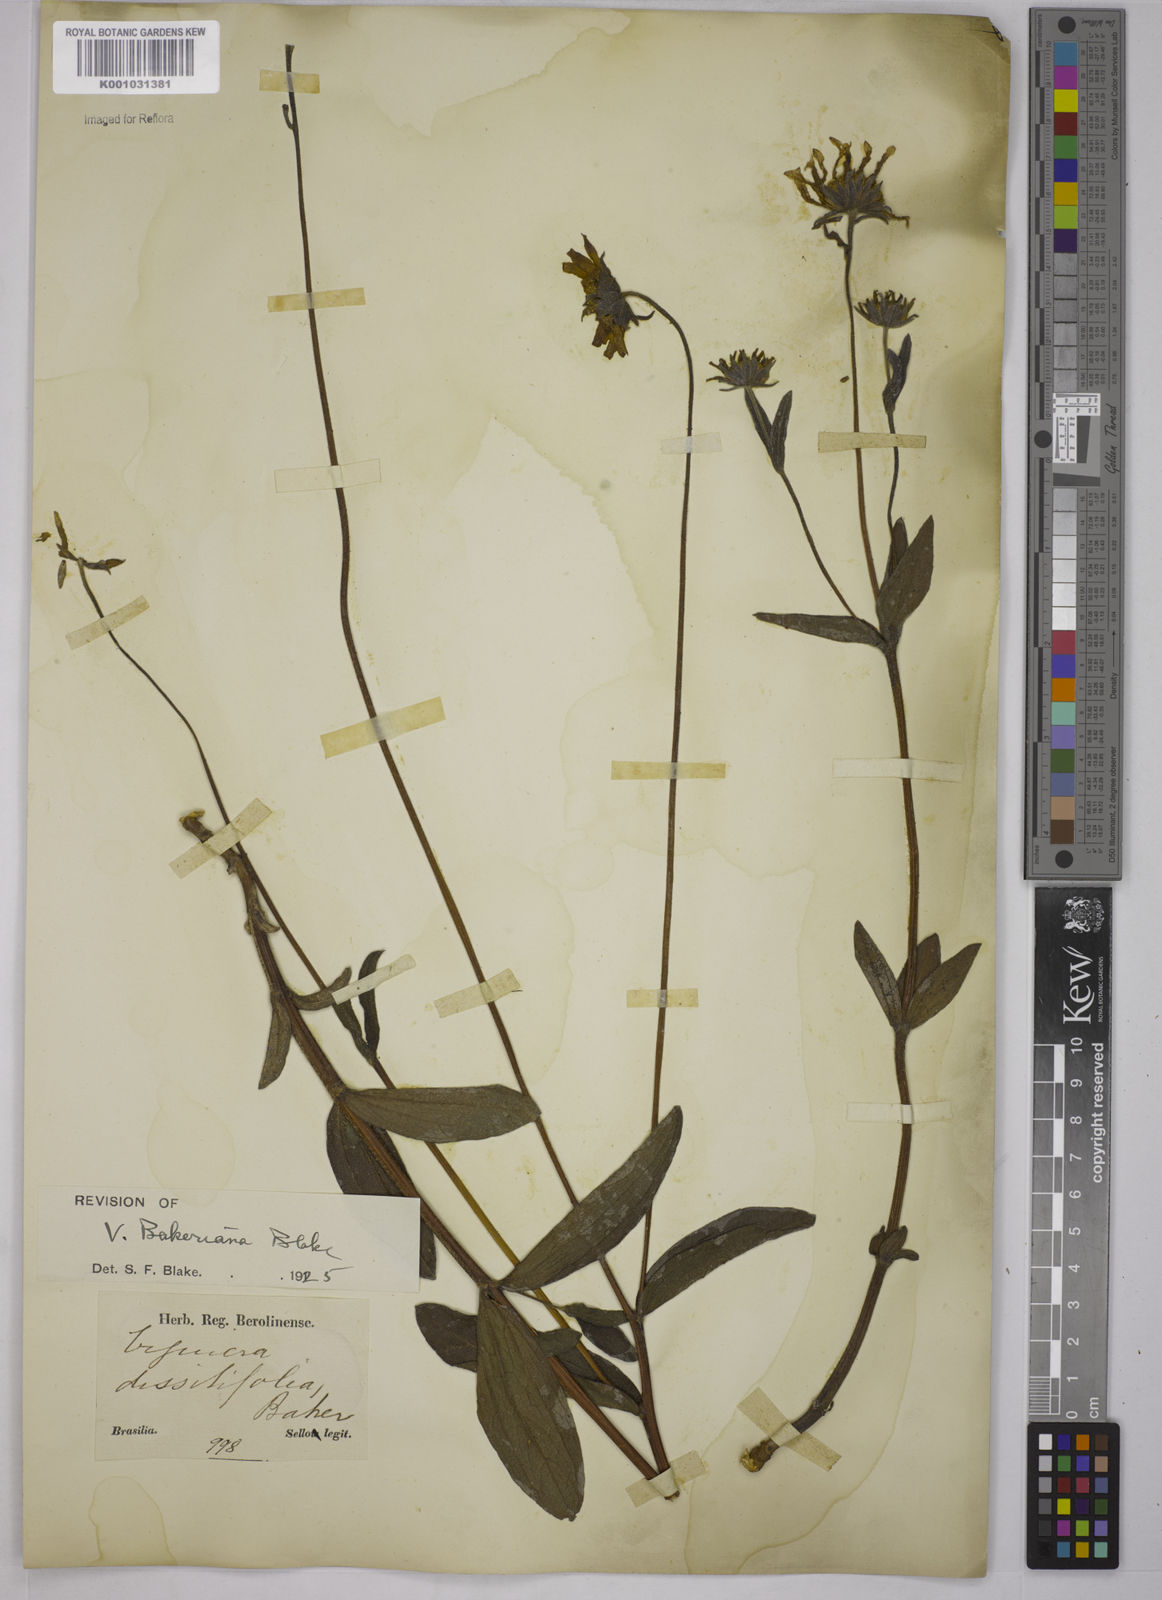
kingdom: Plantae
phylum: Tracheophyta
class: Magnoliopsida
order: Asterales
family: Asteraceae
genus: Aldama
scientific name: Aldama bakeriana
